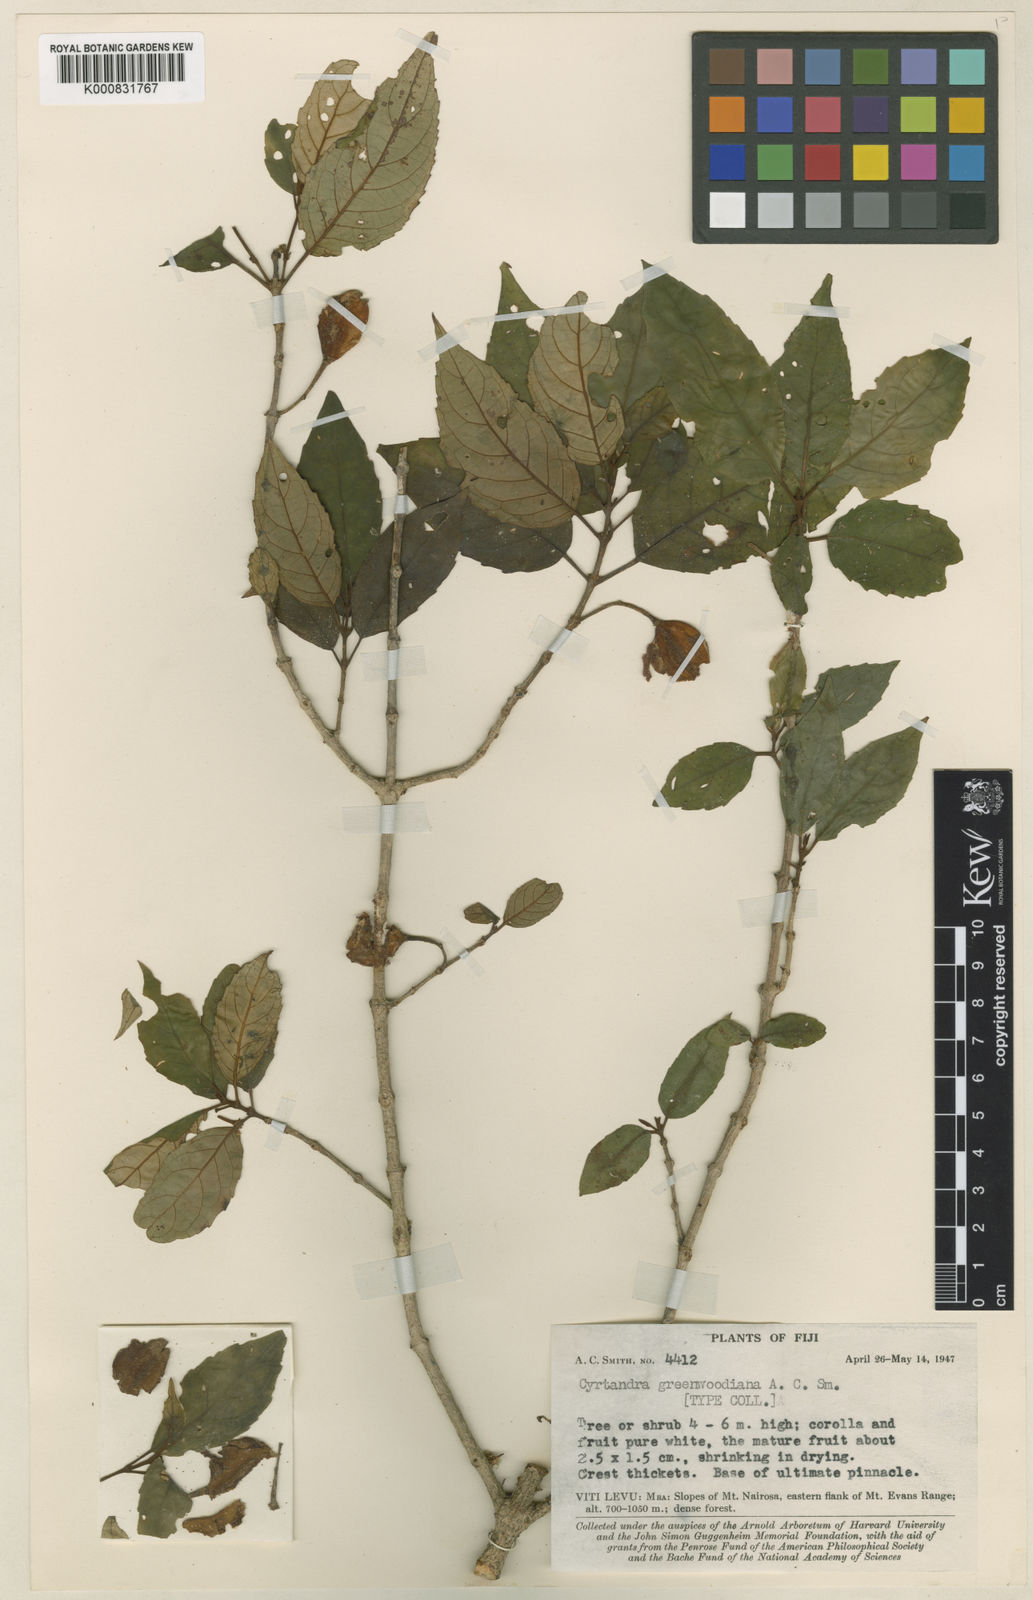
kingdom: Plantae
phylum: Tracheophyta
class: Magnoliopsida
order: Lamiales
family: Gesneriaceae
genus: Cyrtandra
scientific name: Cyrtandra hornei
